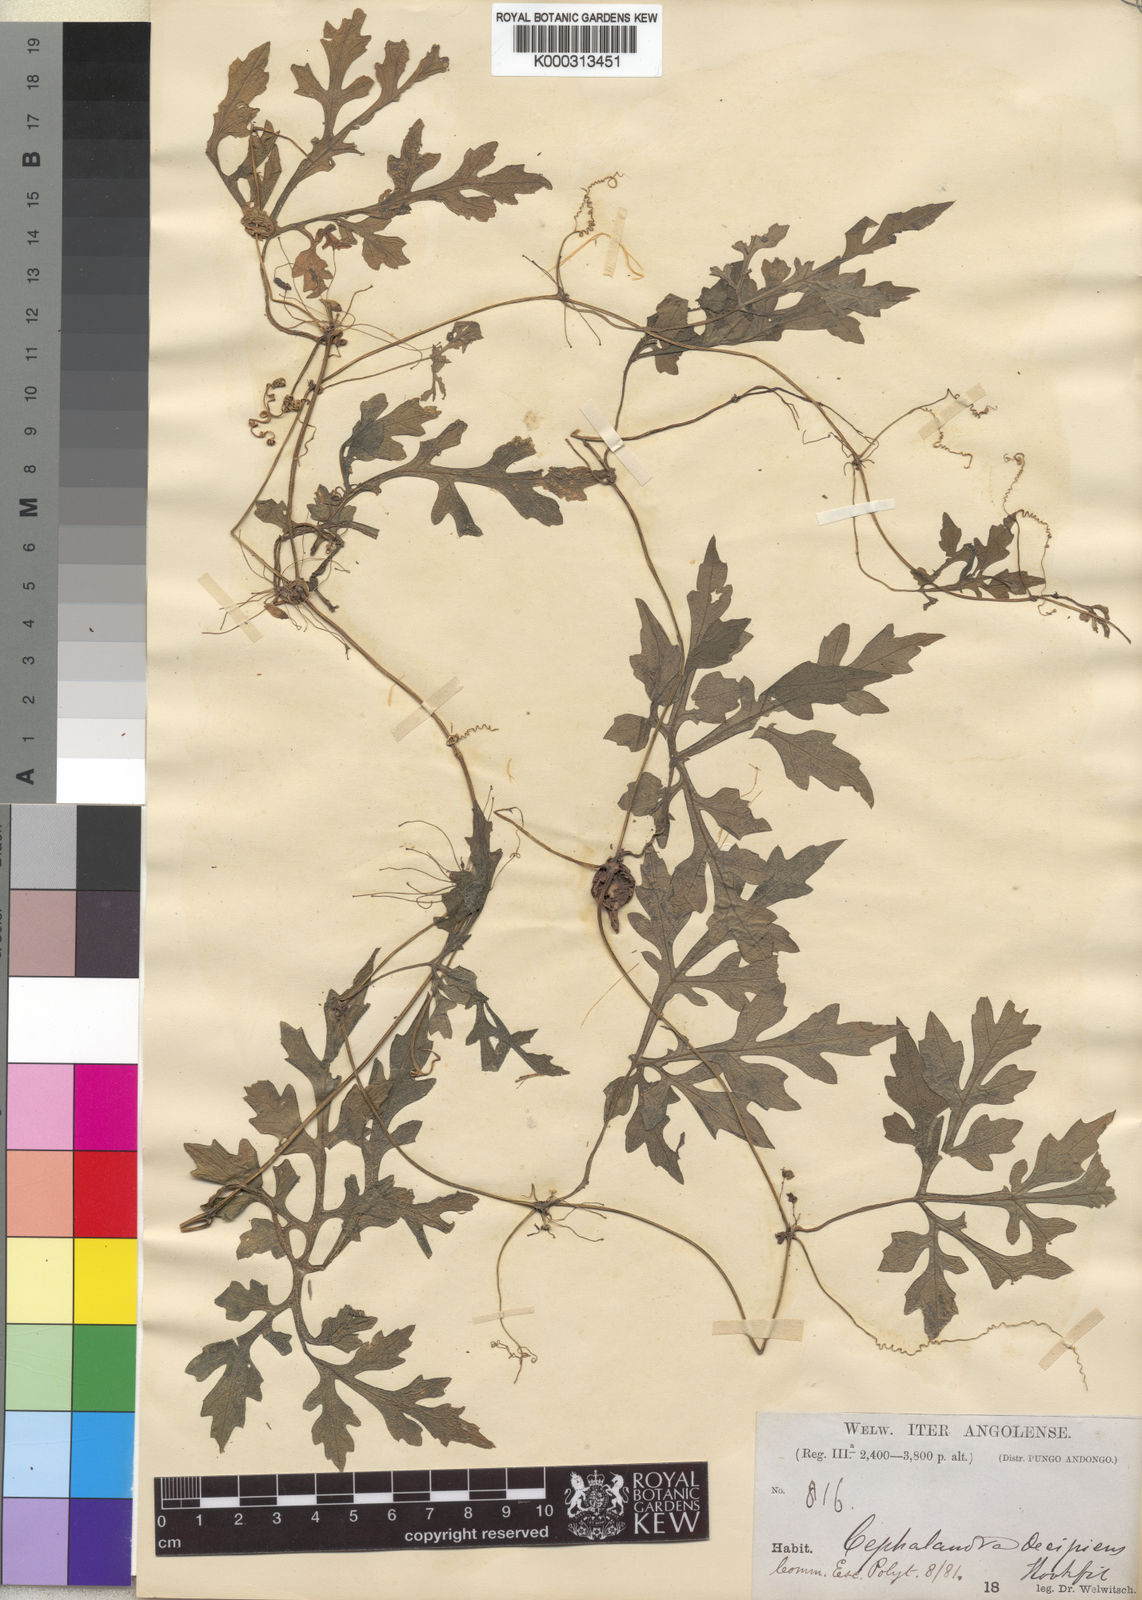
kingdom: Plantae
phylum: Tracheophyta
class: Magnoliopsida
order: Cucurbitales
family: Cucurbitaceae
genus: Diplocyclos
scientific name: Diplocyclos decipiens
